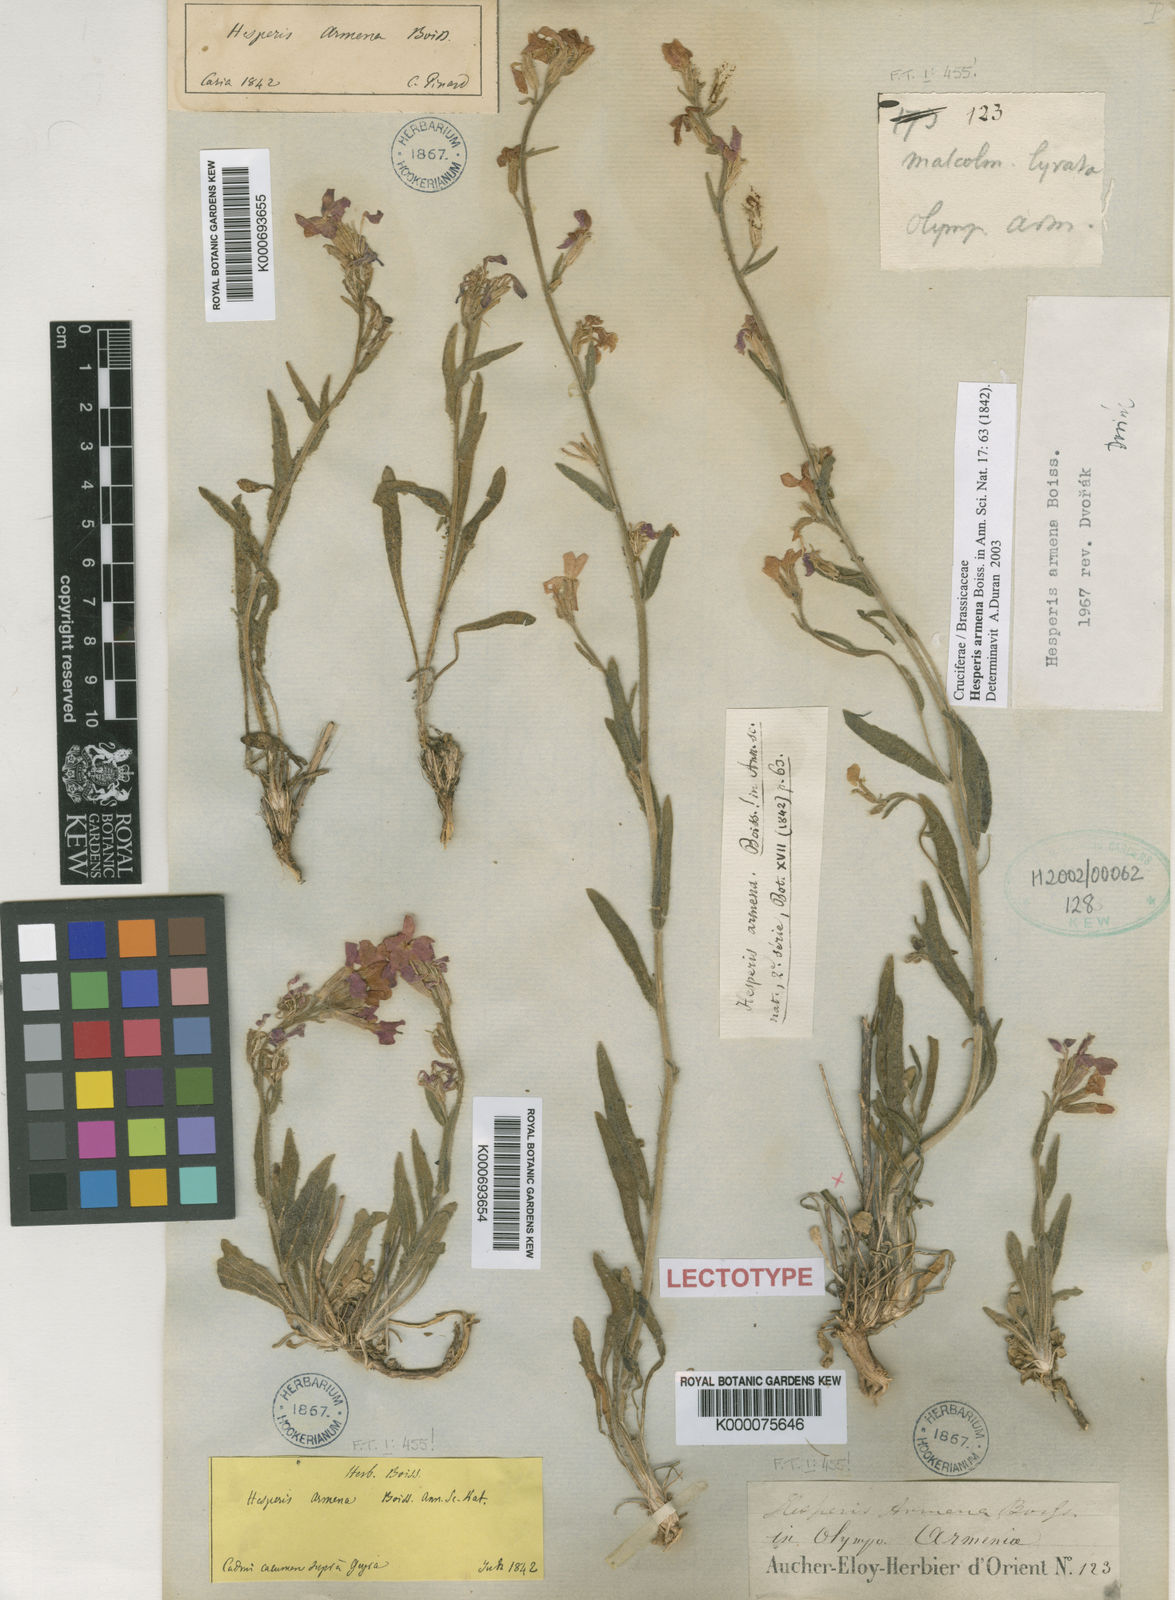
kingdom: Plantae
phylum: Tracheophyta
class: Magnoliopsida
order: Brassicales
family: Brassicaceae
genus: Hesperis
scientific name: Hesperis armena
